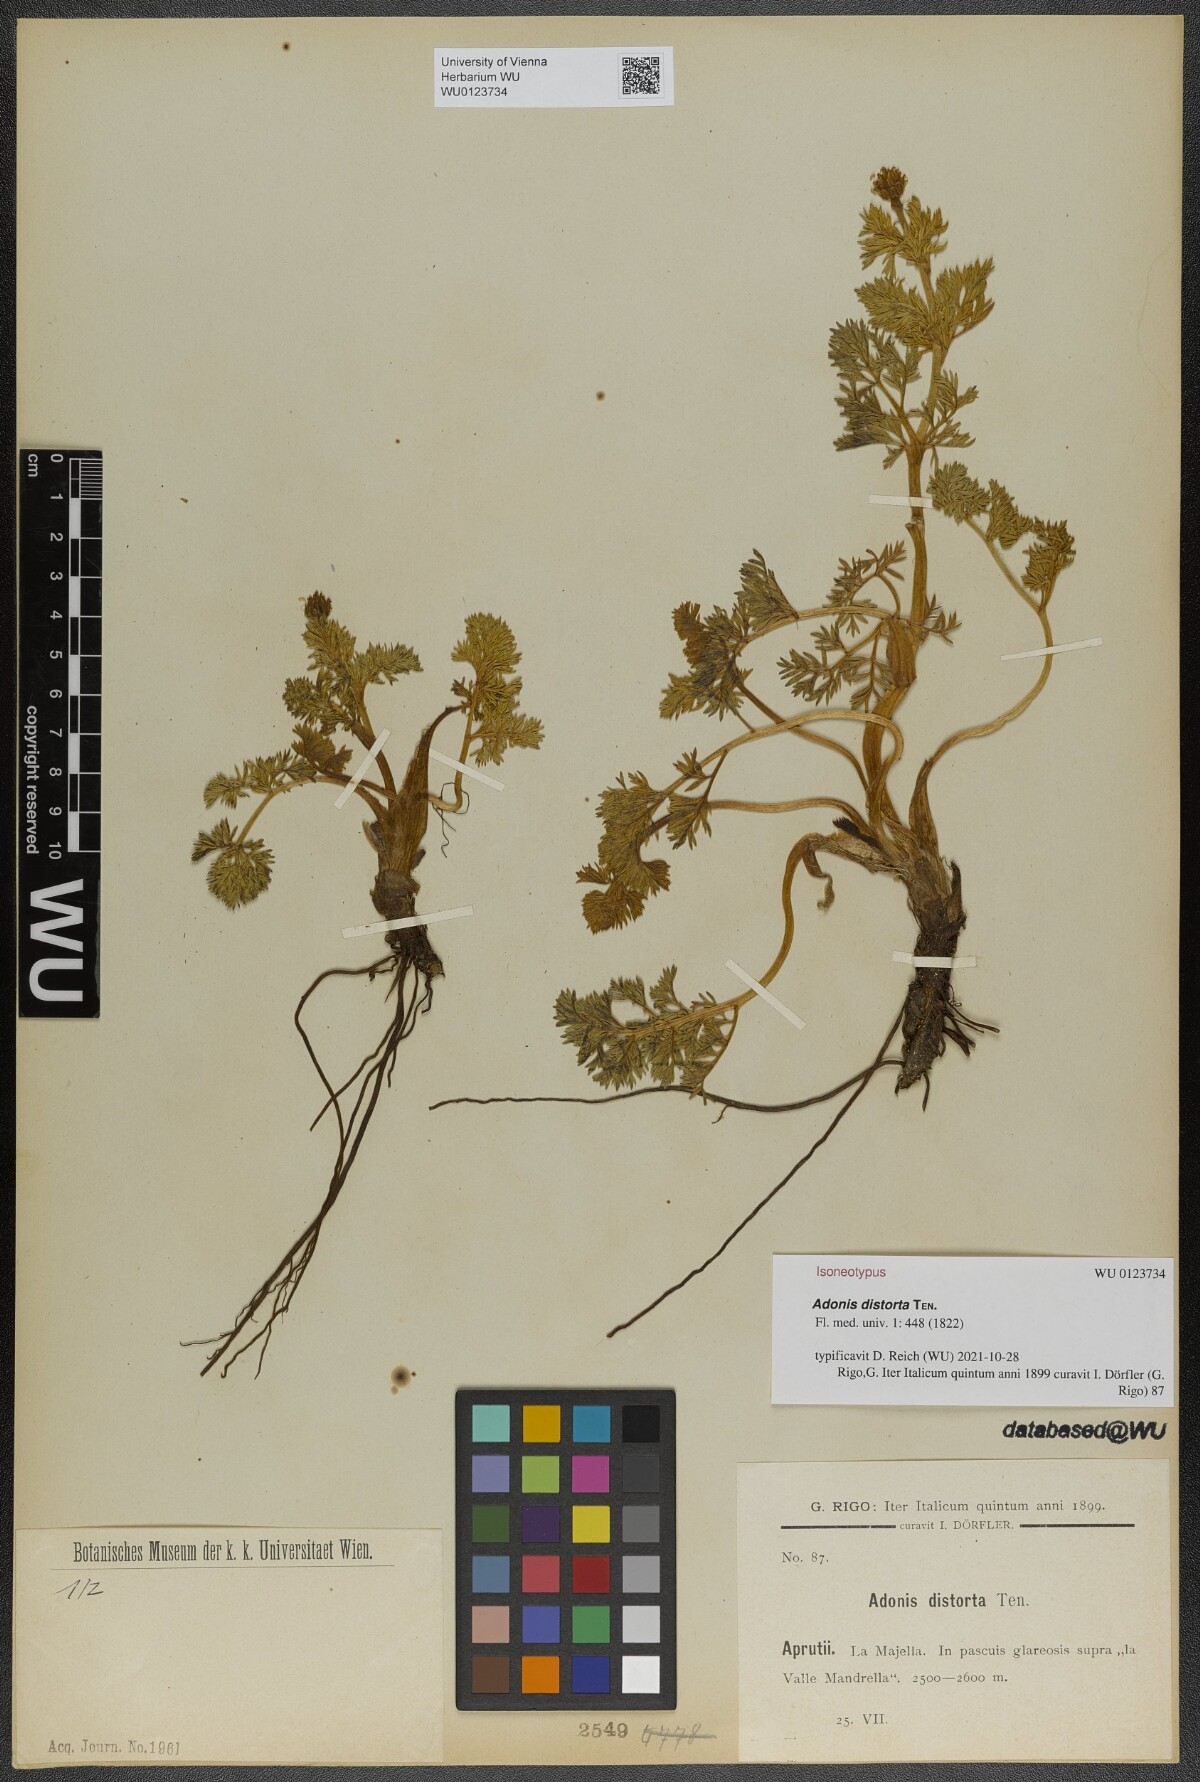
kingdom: Plantae
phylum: Tracheophyta
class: Magnoliopsida
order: Ranunculales
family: Ranunculaceae
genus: Adonis
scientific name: Adonis distorta
